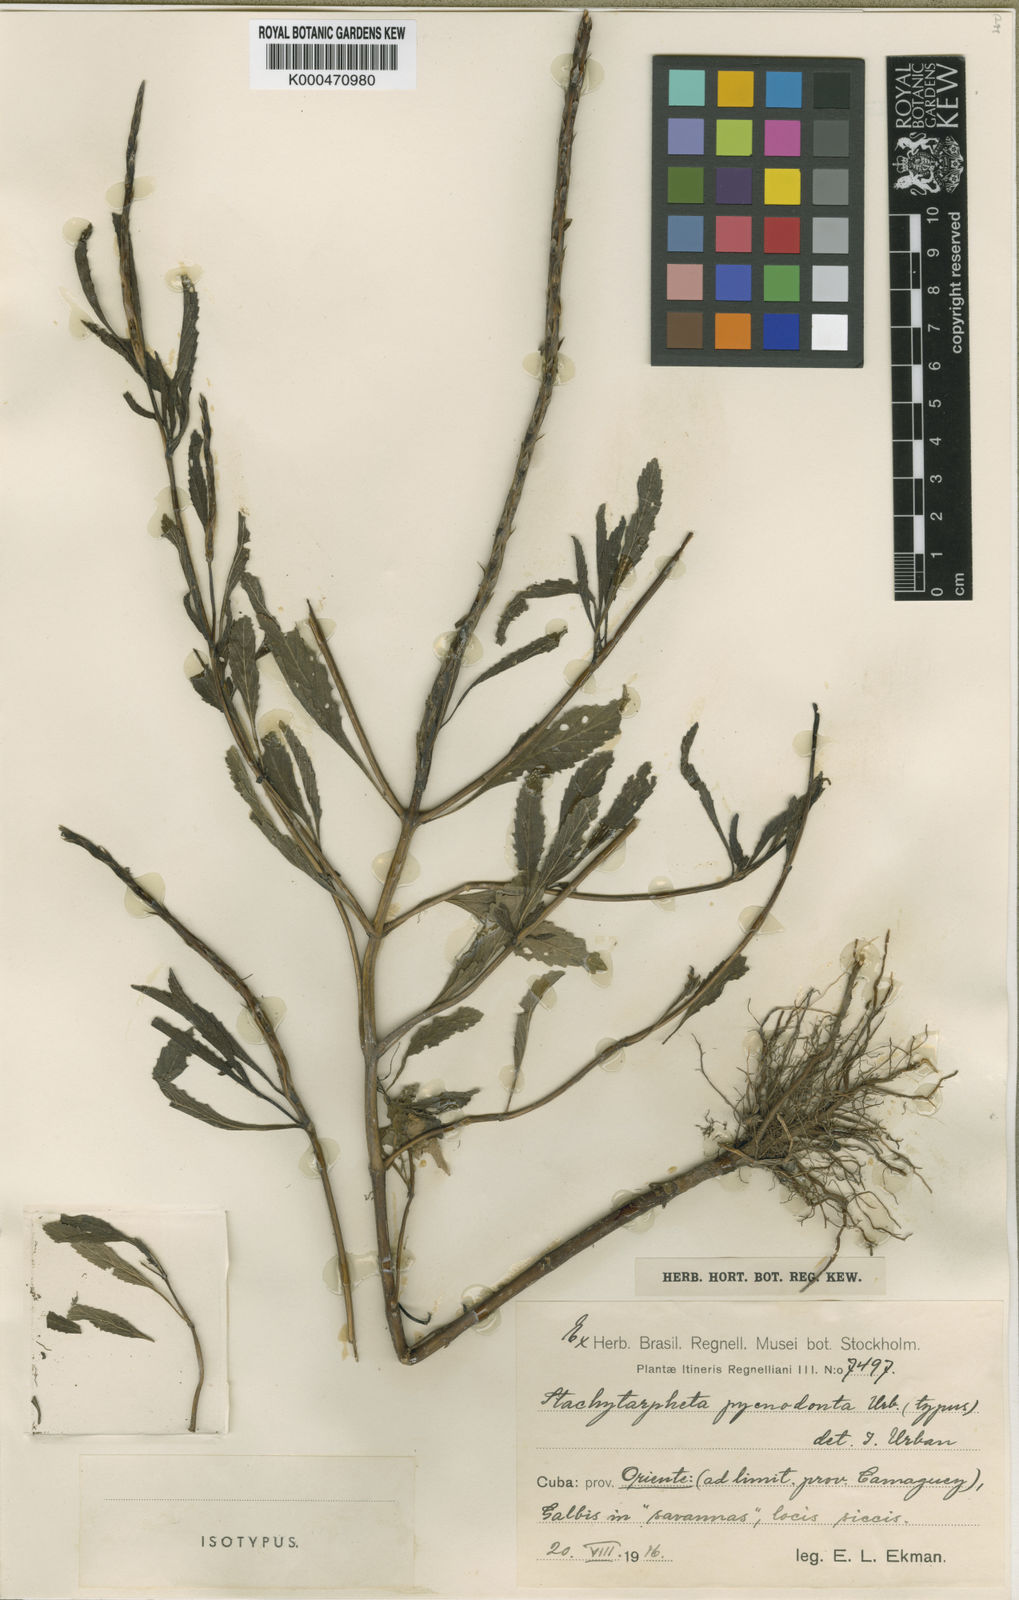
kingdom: Plantae
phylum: Tracheophyta
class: Magnoliopsida
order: Lamiales
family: Verbenaceae
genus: Stachytarpheta
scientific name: Stachytarpheta pycnodonta
